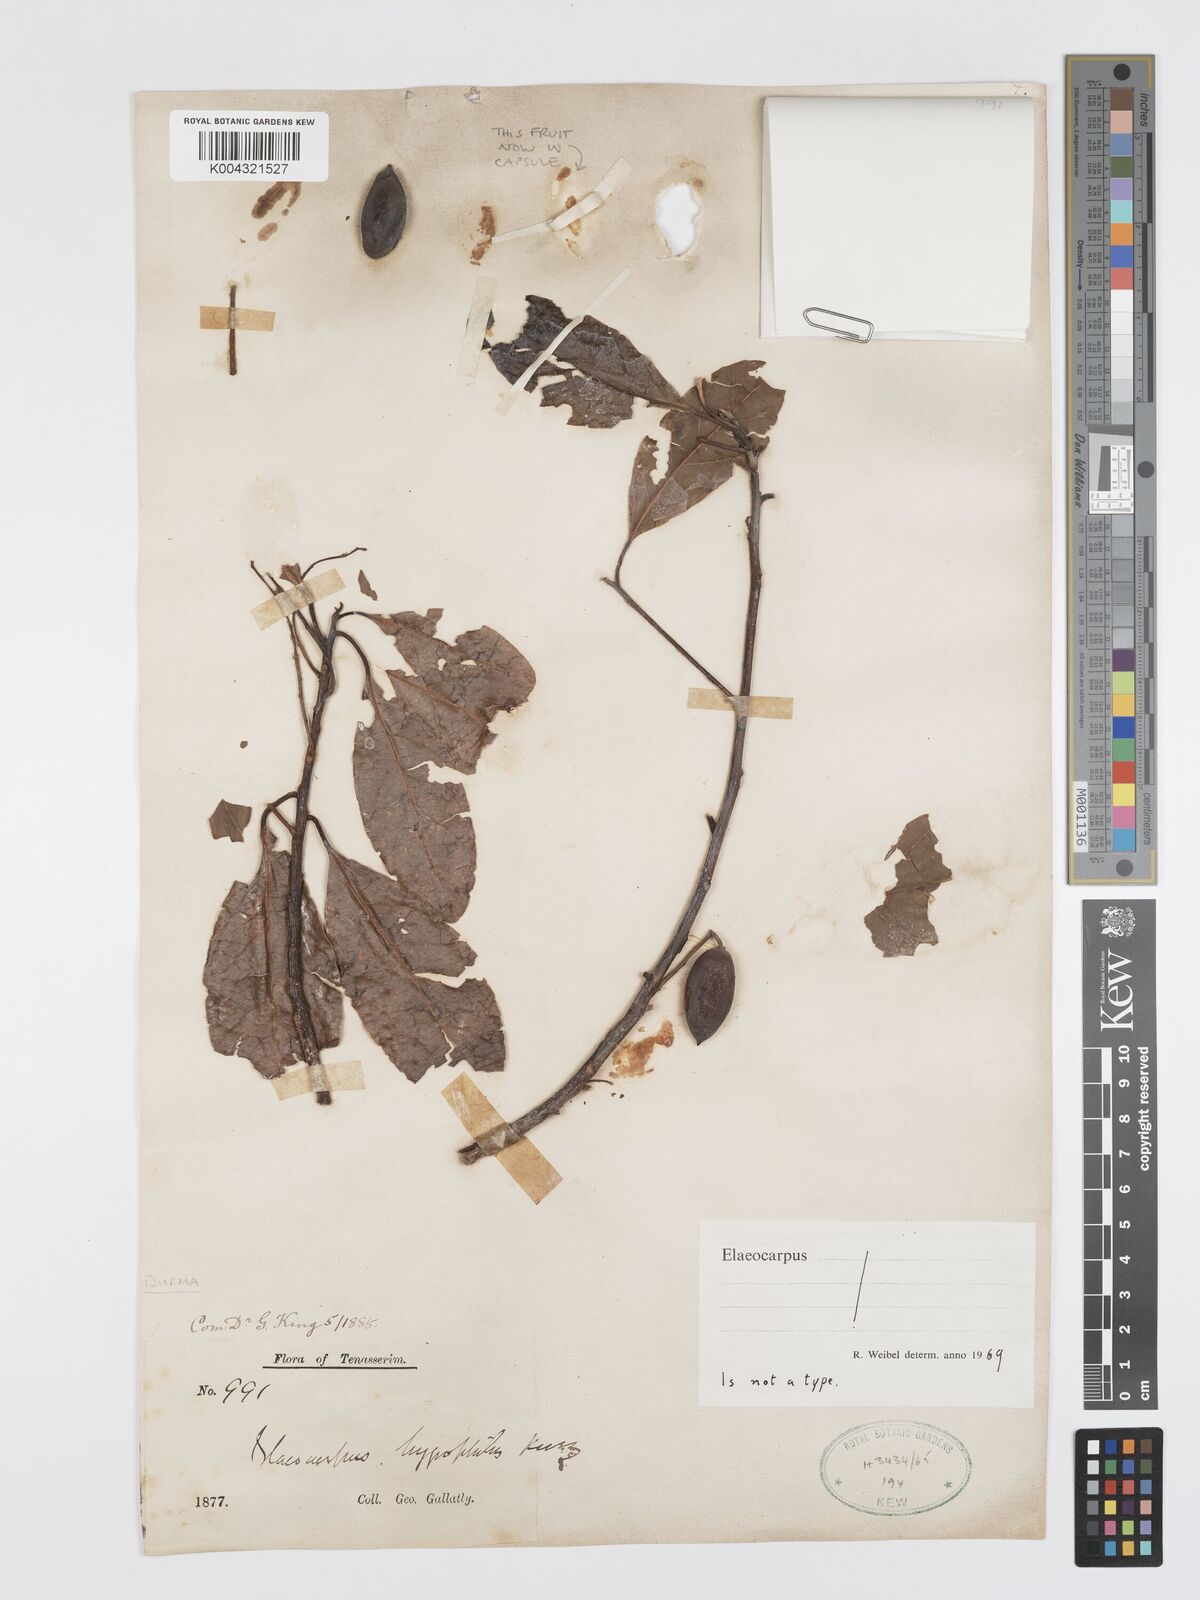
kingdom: Plantae
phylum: Tracheophyta
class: Magnoliopsida
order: Oxalidales
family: Elaeocarpaceae
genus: Elaeocarpus
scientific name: Elaeocarpus hygrophilus
